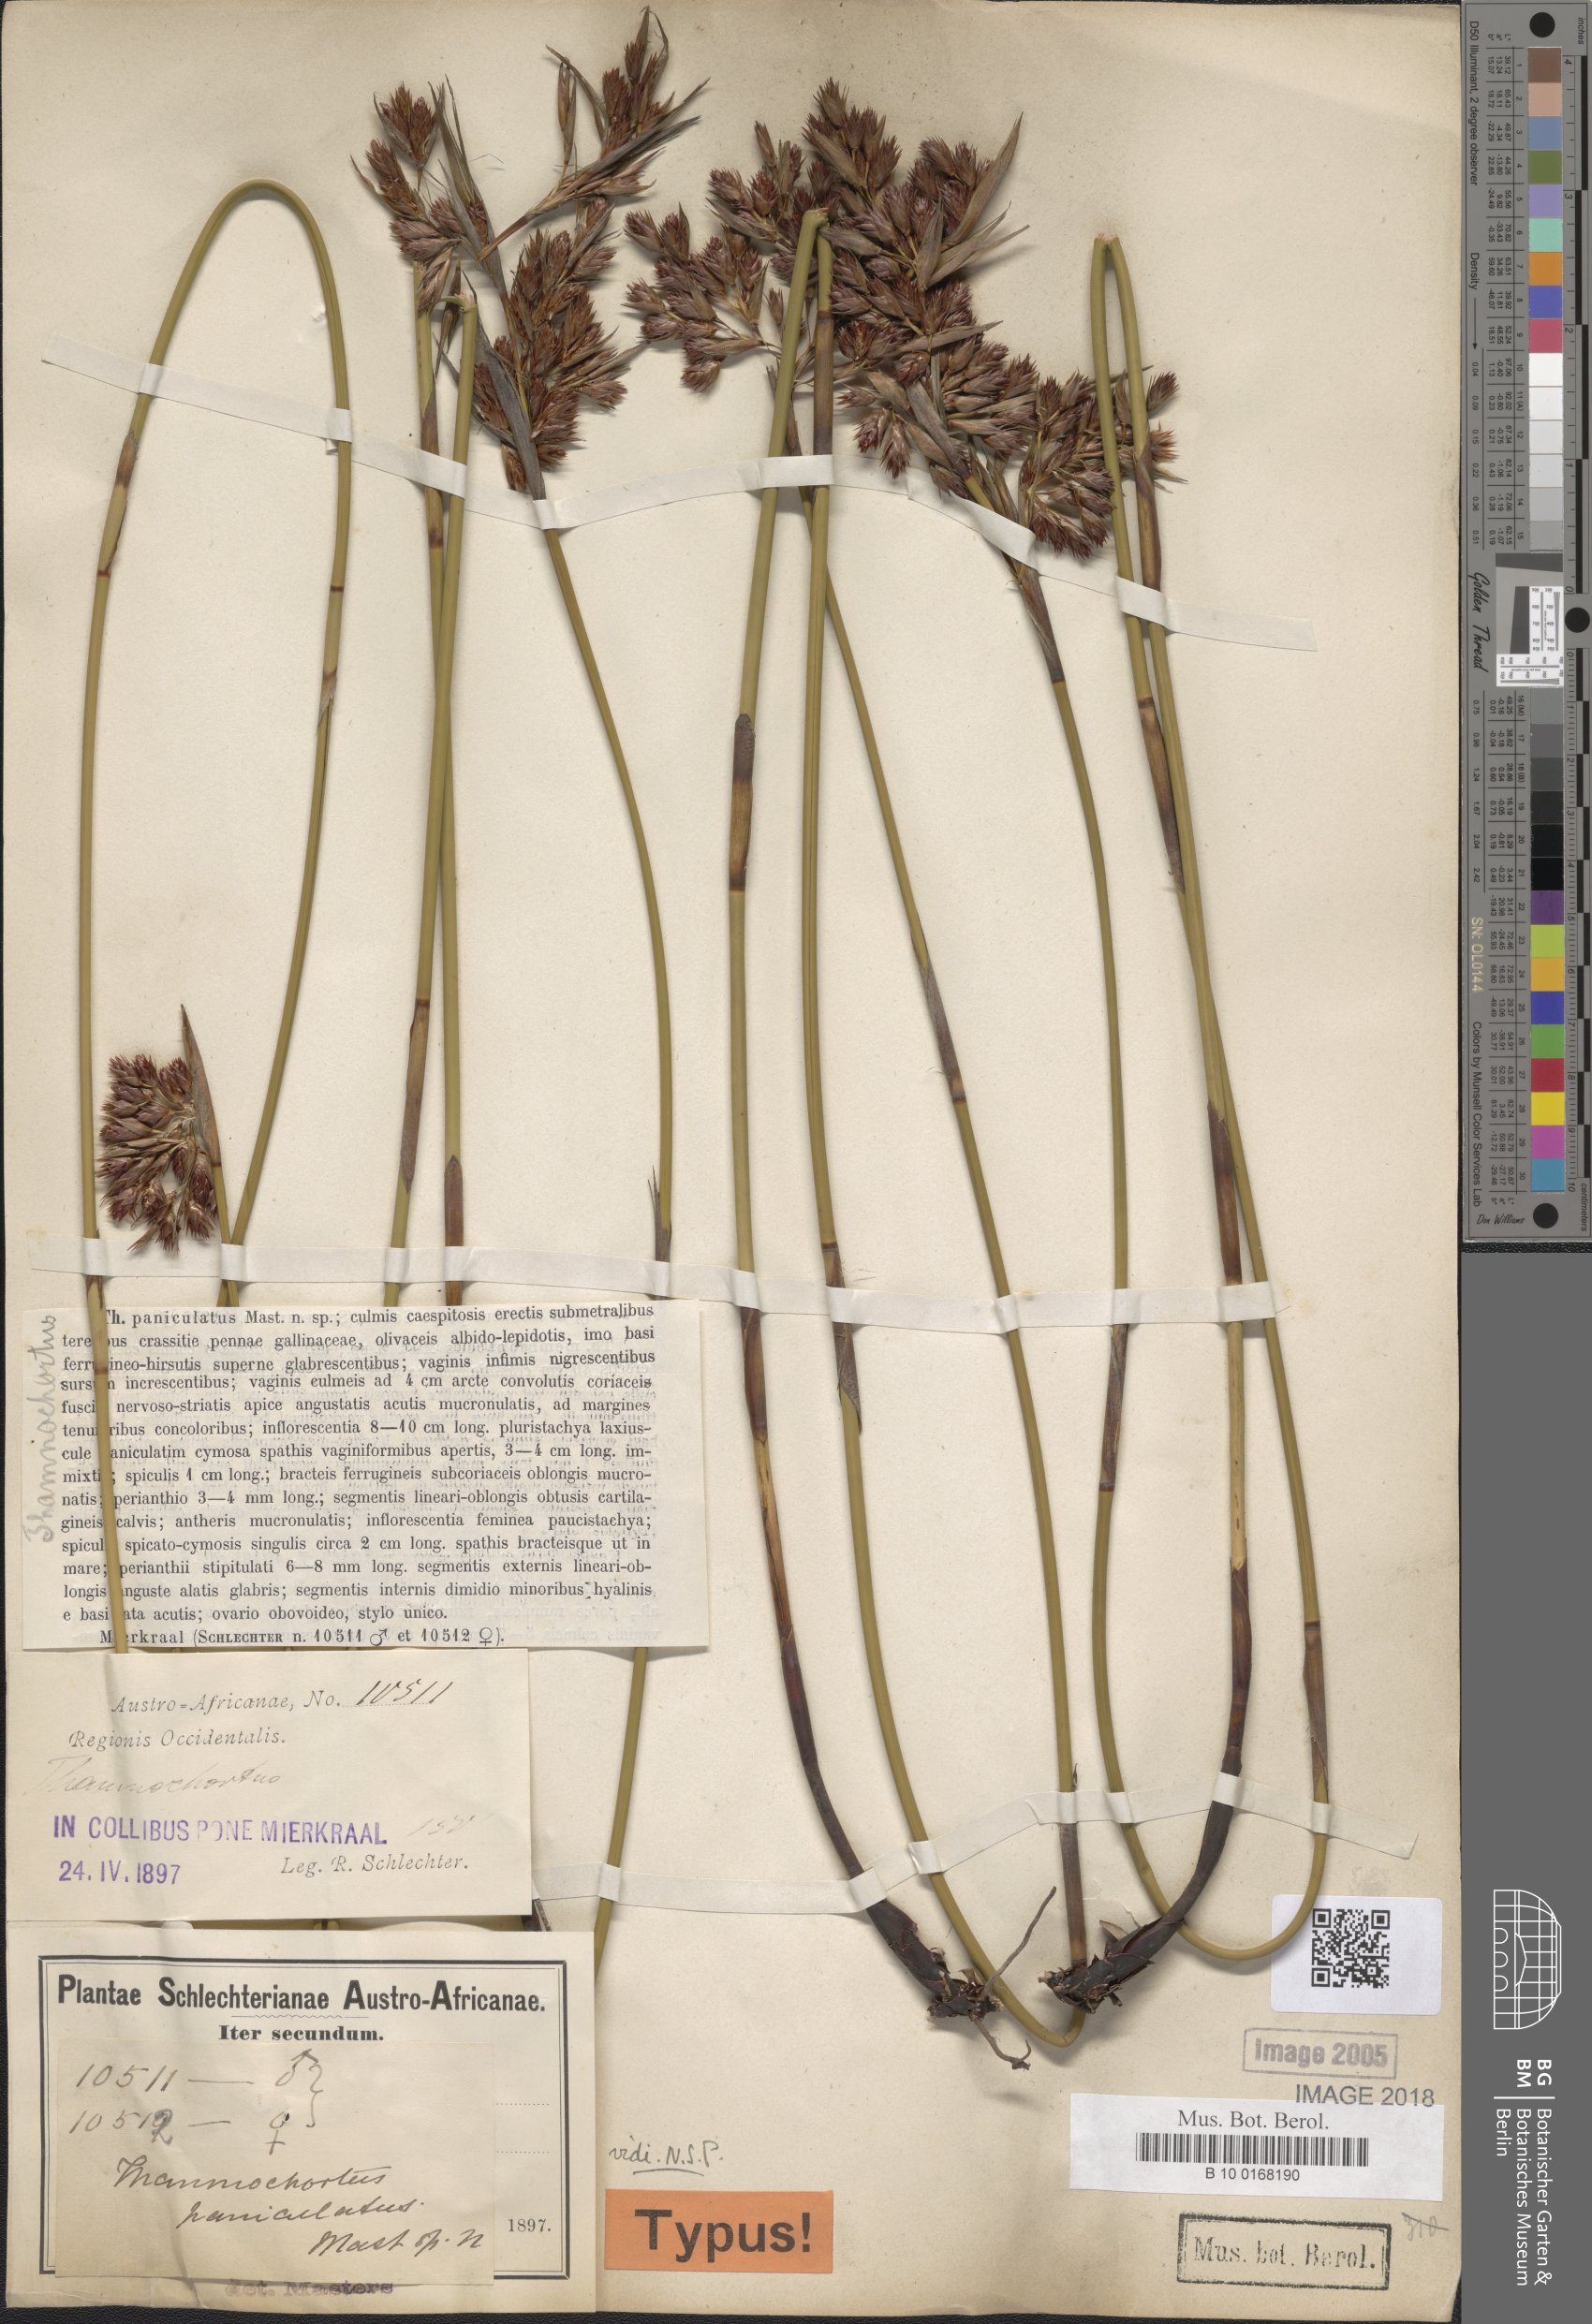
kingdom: Plantae
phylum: Tracheophyta
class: Liliopsida
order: Poales
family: Restionaceae
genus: Thamnochortus
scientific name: Thamnochortus paniculatus
